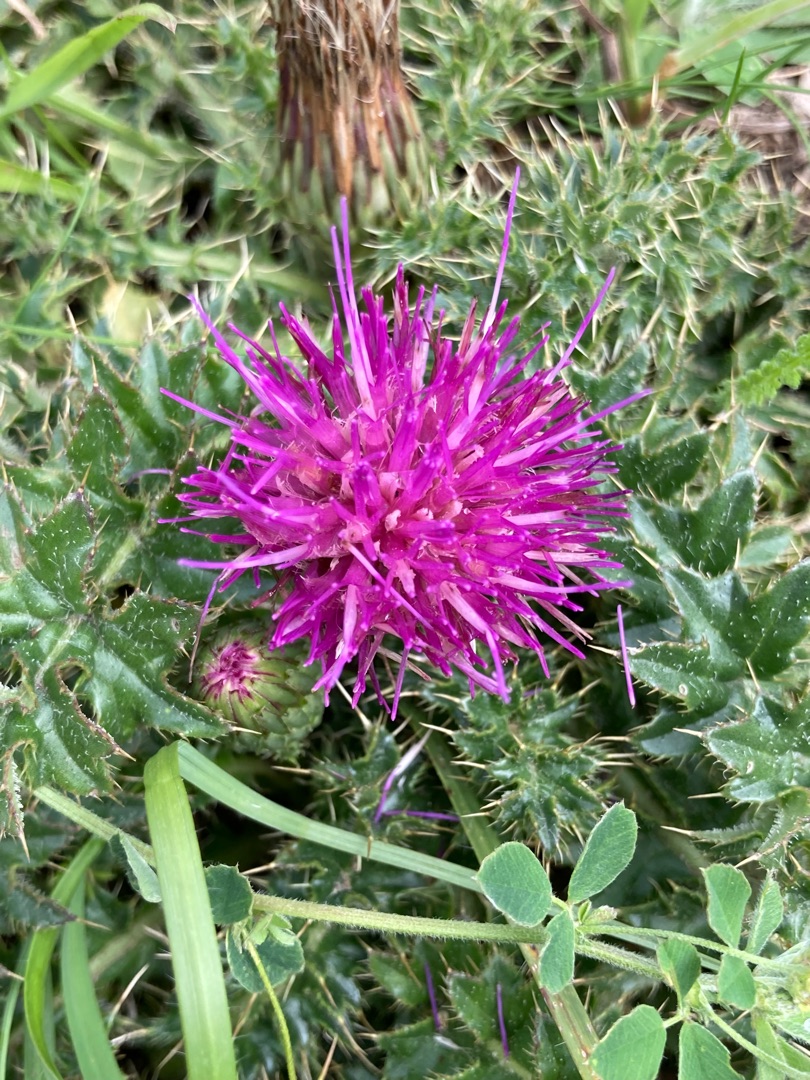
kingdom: Plantae
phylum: Tracheophyta
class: Magnoliopsida
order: Asterales
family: Asteraceae
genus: Cirsium
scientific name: Cirsium acaule
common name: Lav tidsel
